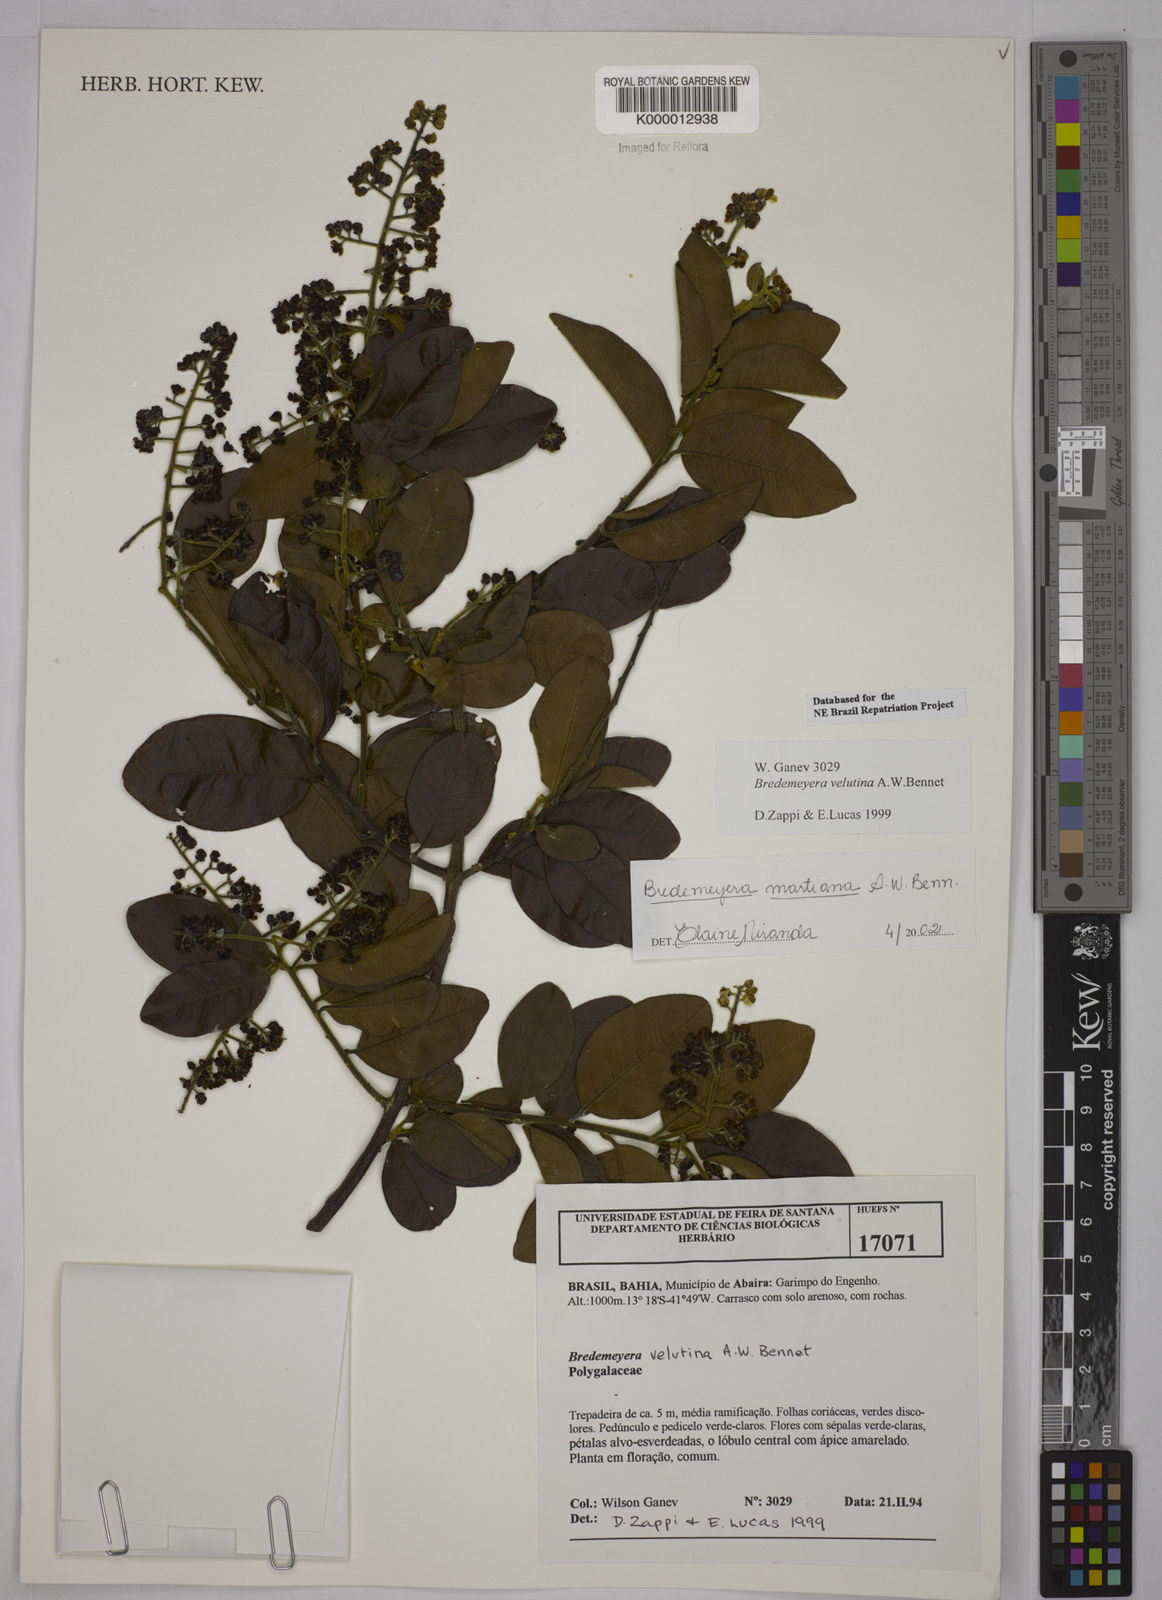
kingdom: Plantae
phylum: Tracheophyta
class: Magnoliopsida
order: Fabales
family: Polygalaceae
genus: Bredemeyera
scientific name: Bredemeyera martiana
